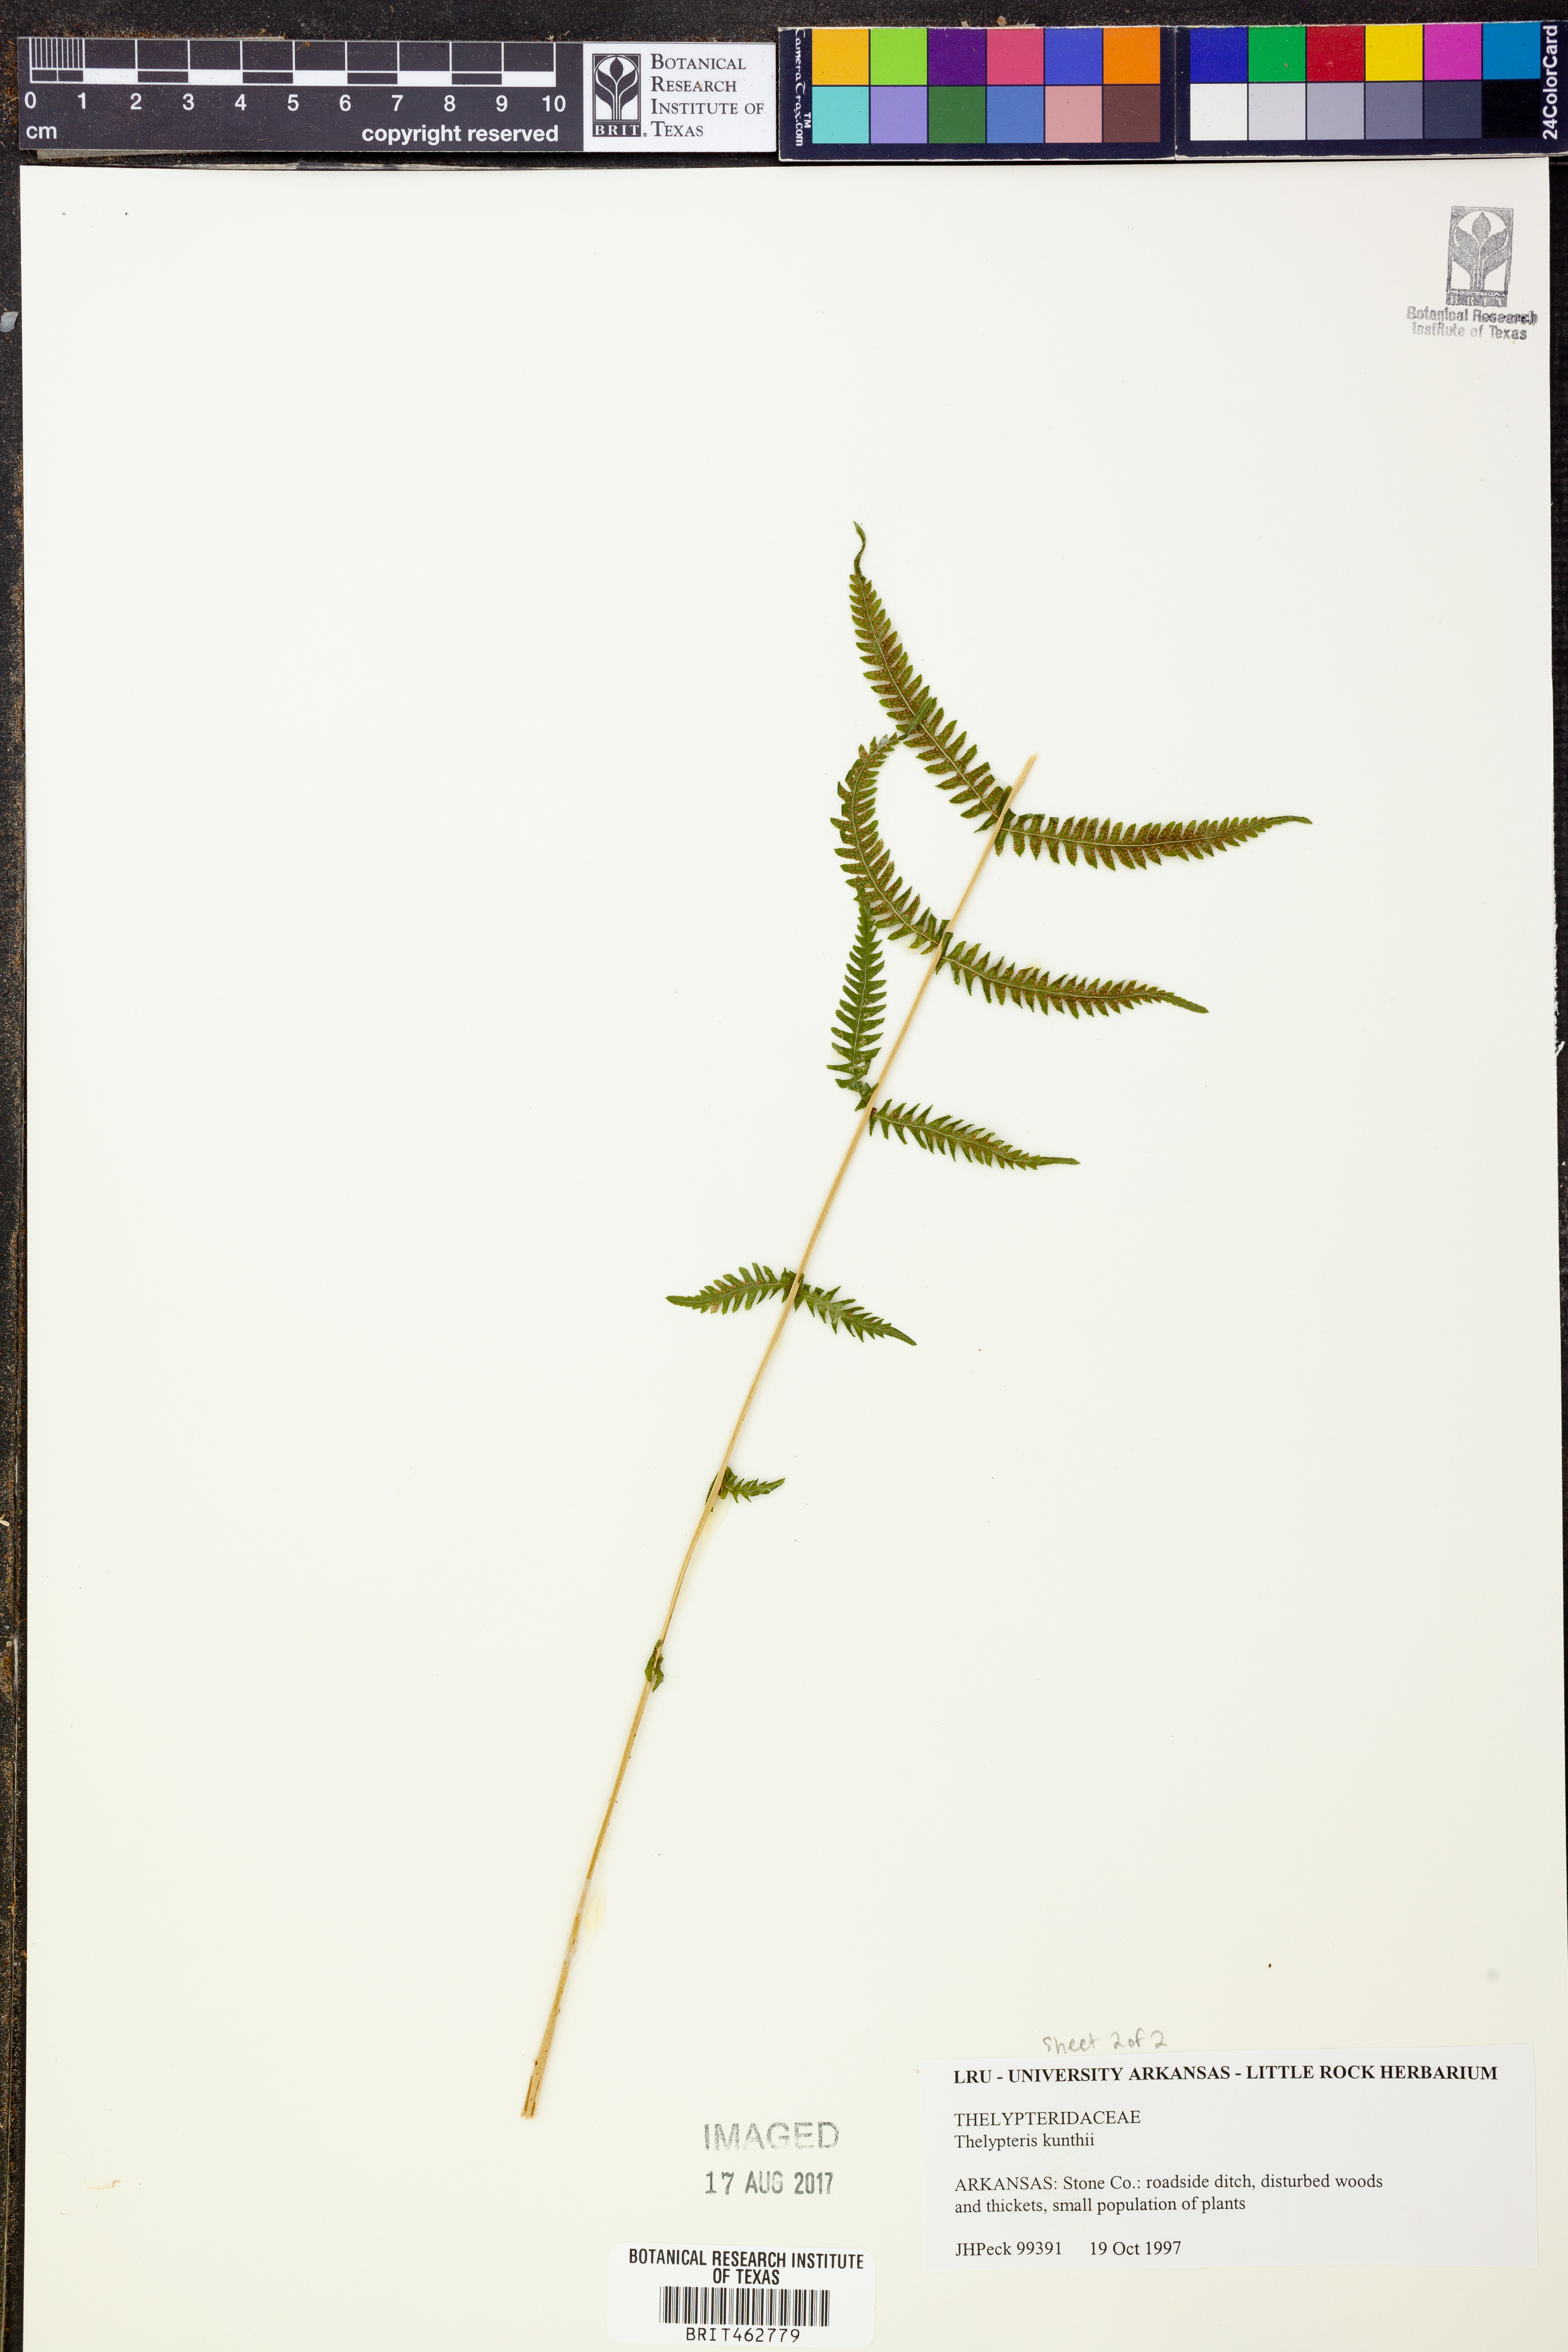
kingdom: Plantae
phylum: Tracheophyta
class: Polypodiopsida
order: Polypodiales
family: Thelypteridaceae
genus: Pelazoneuron
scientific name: Pelazoneuron kunthii
